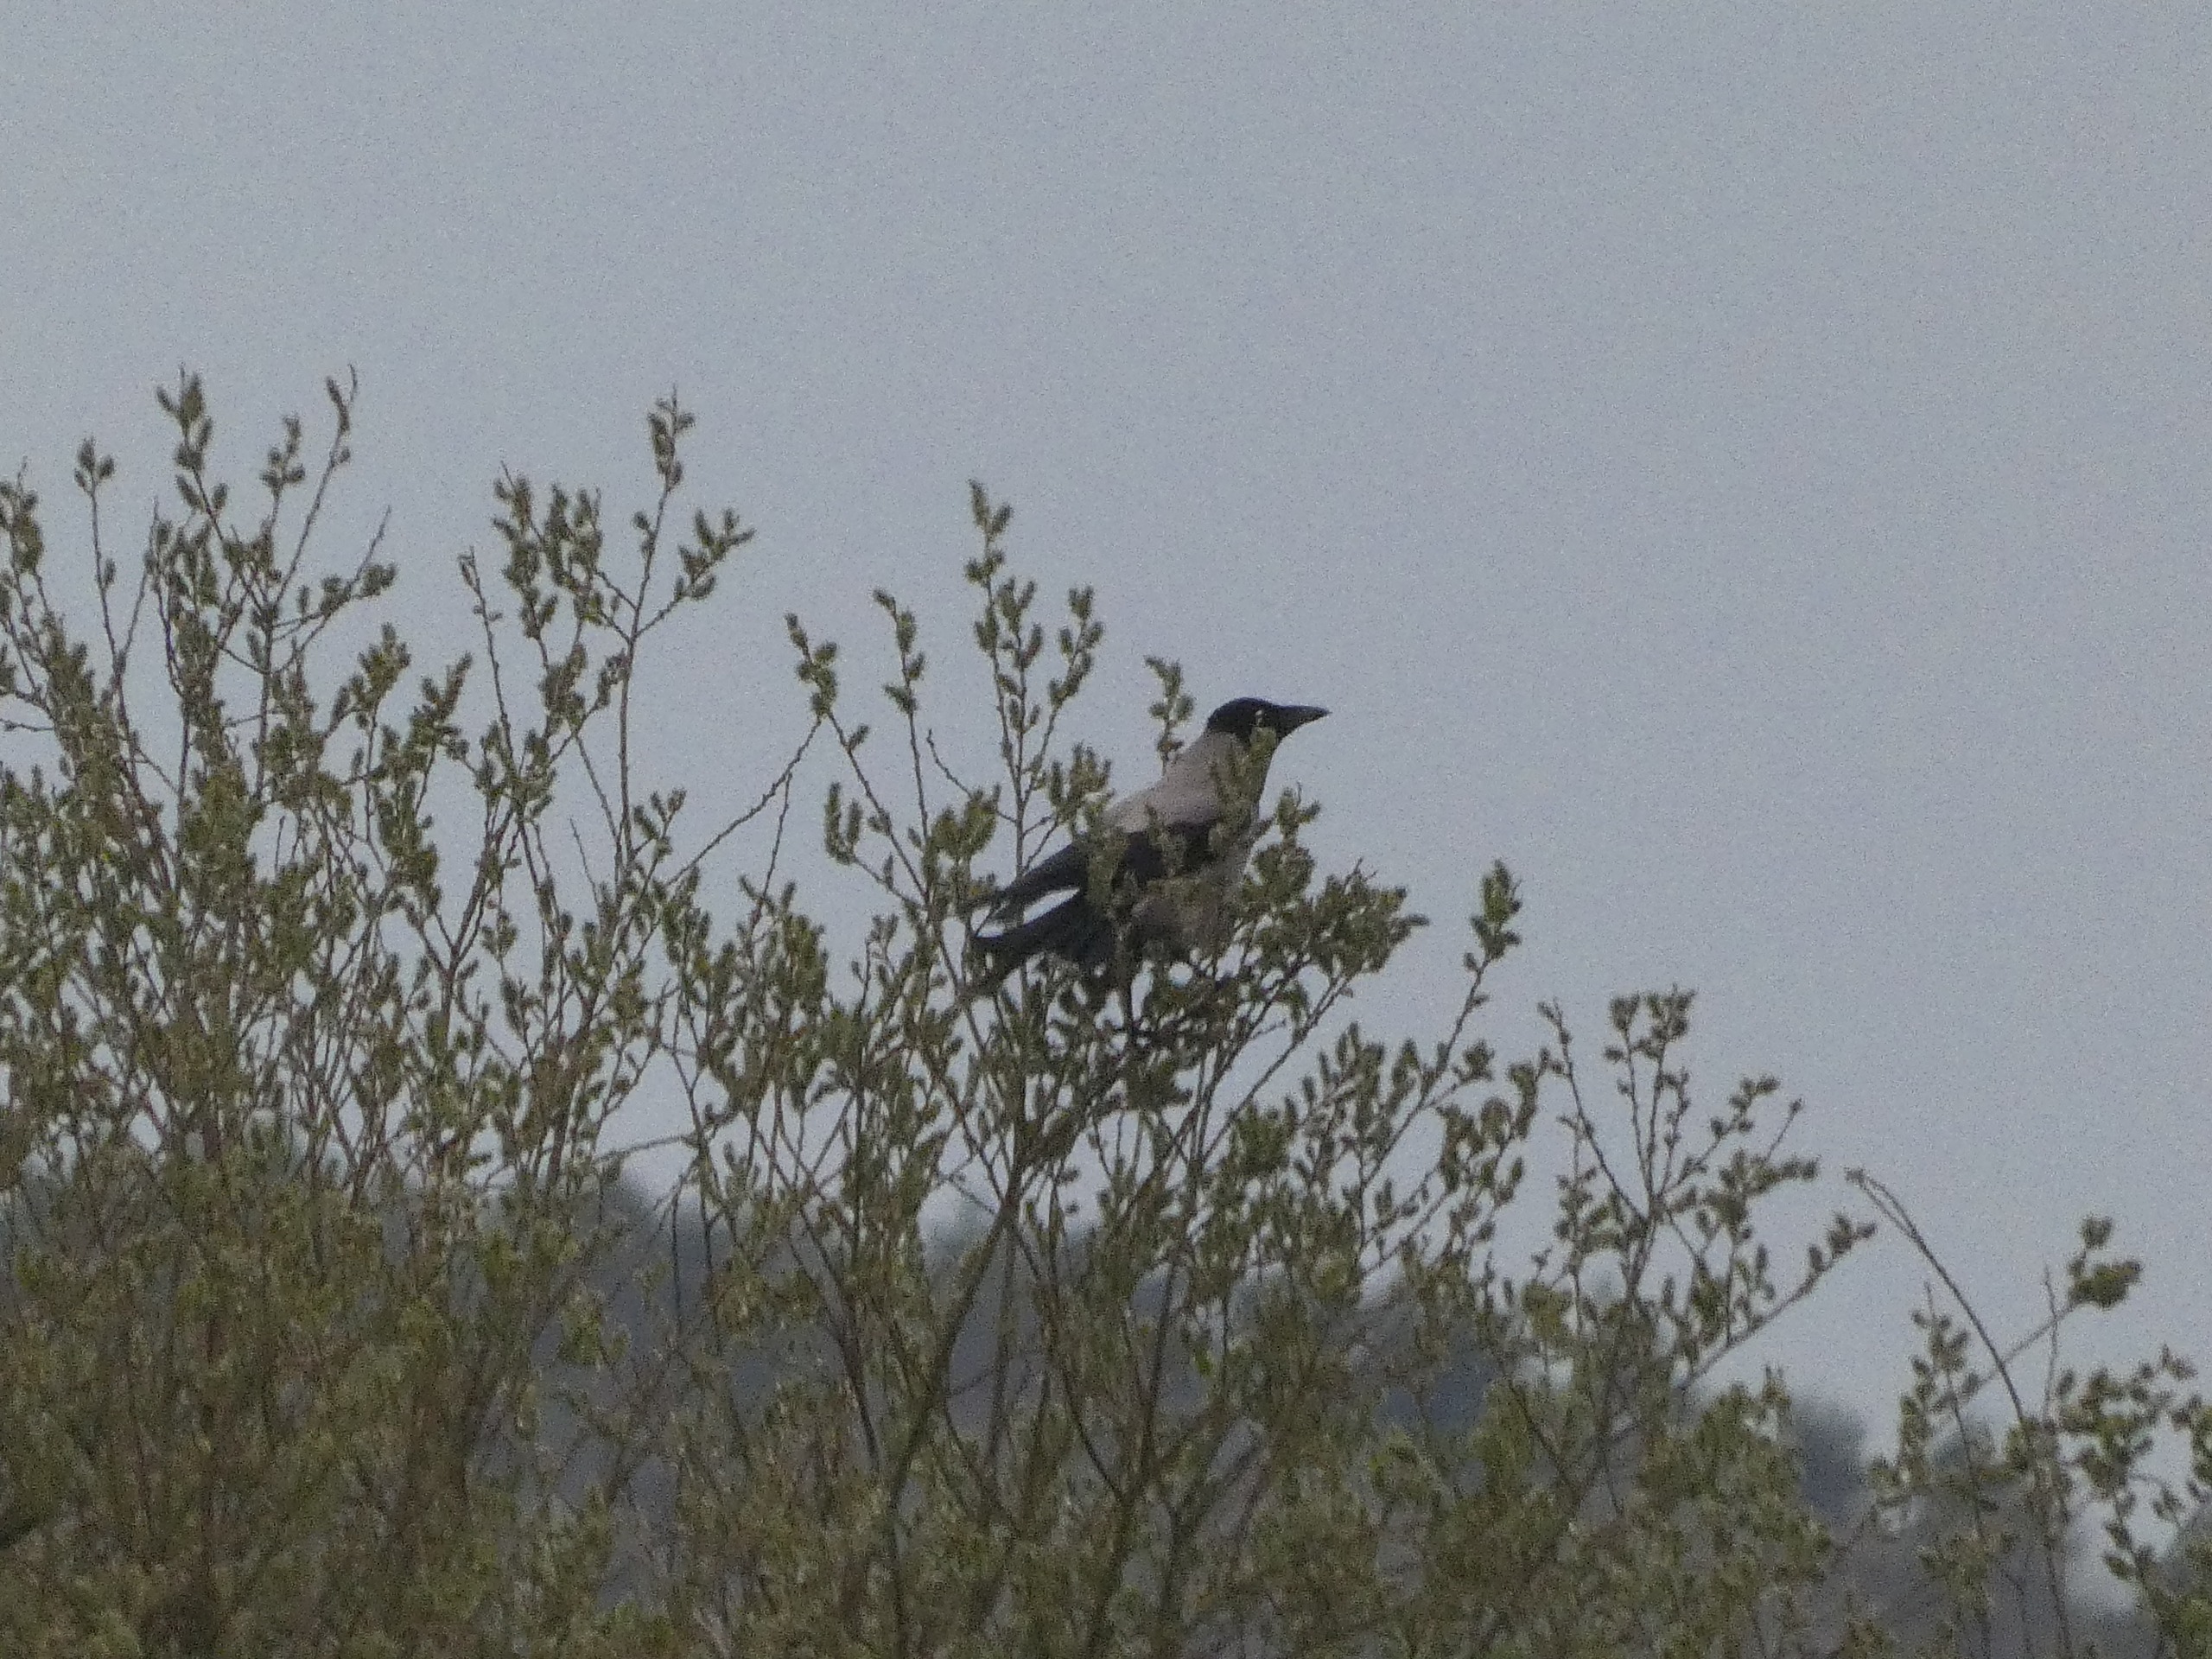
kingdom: Animalia
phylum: Chordata
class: Aves
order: Passeriformes
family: Corvidae
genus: Corvus
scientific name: Corvus cornix
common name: Gråkrage
